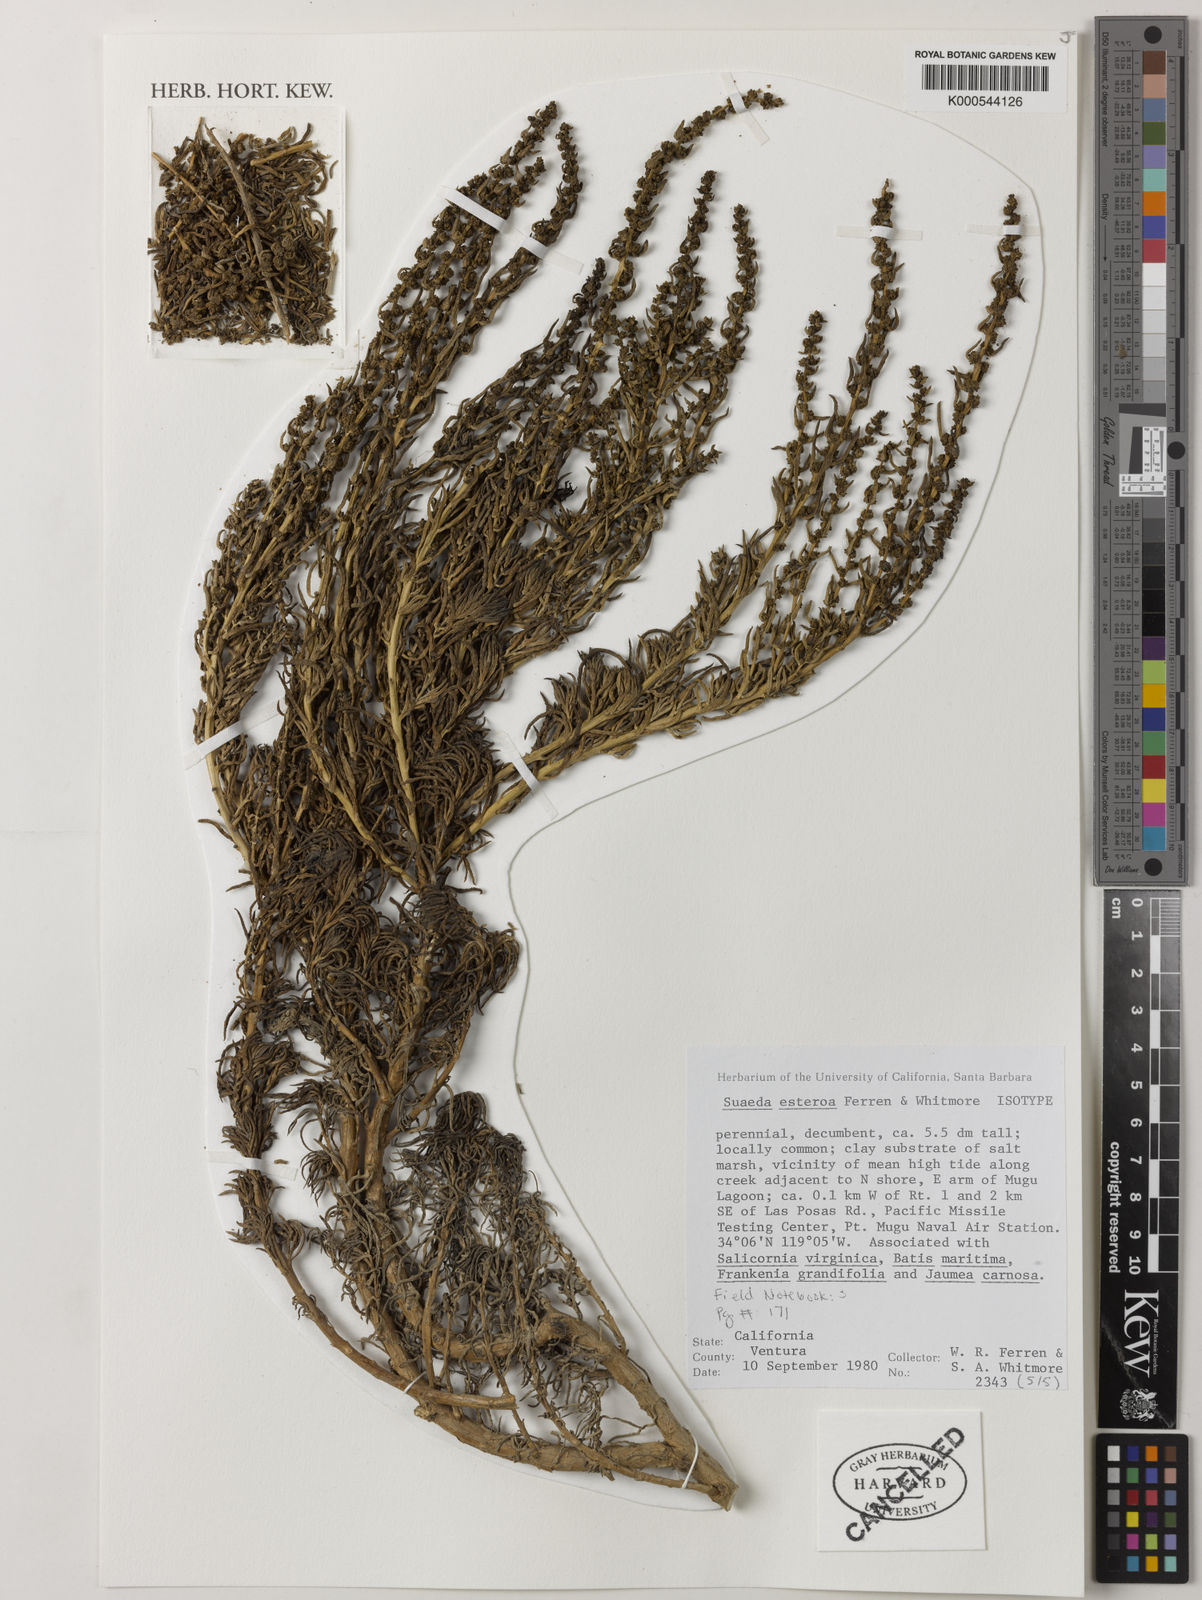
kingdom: Plantae
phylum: Tracheophyta
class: Magnoliopsida
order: Caryophyllales
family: Amaranthaceae
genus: Suaeda
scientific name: Suaeda esteroa
